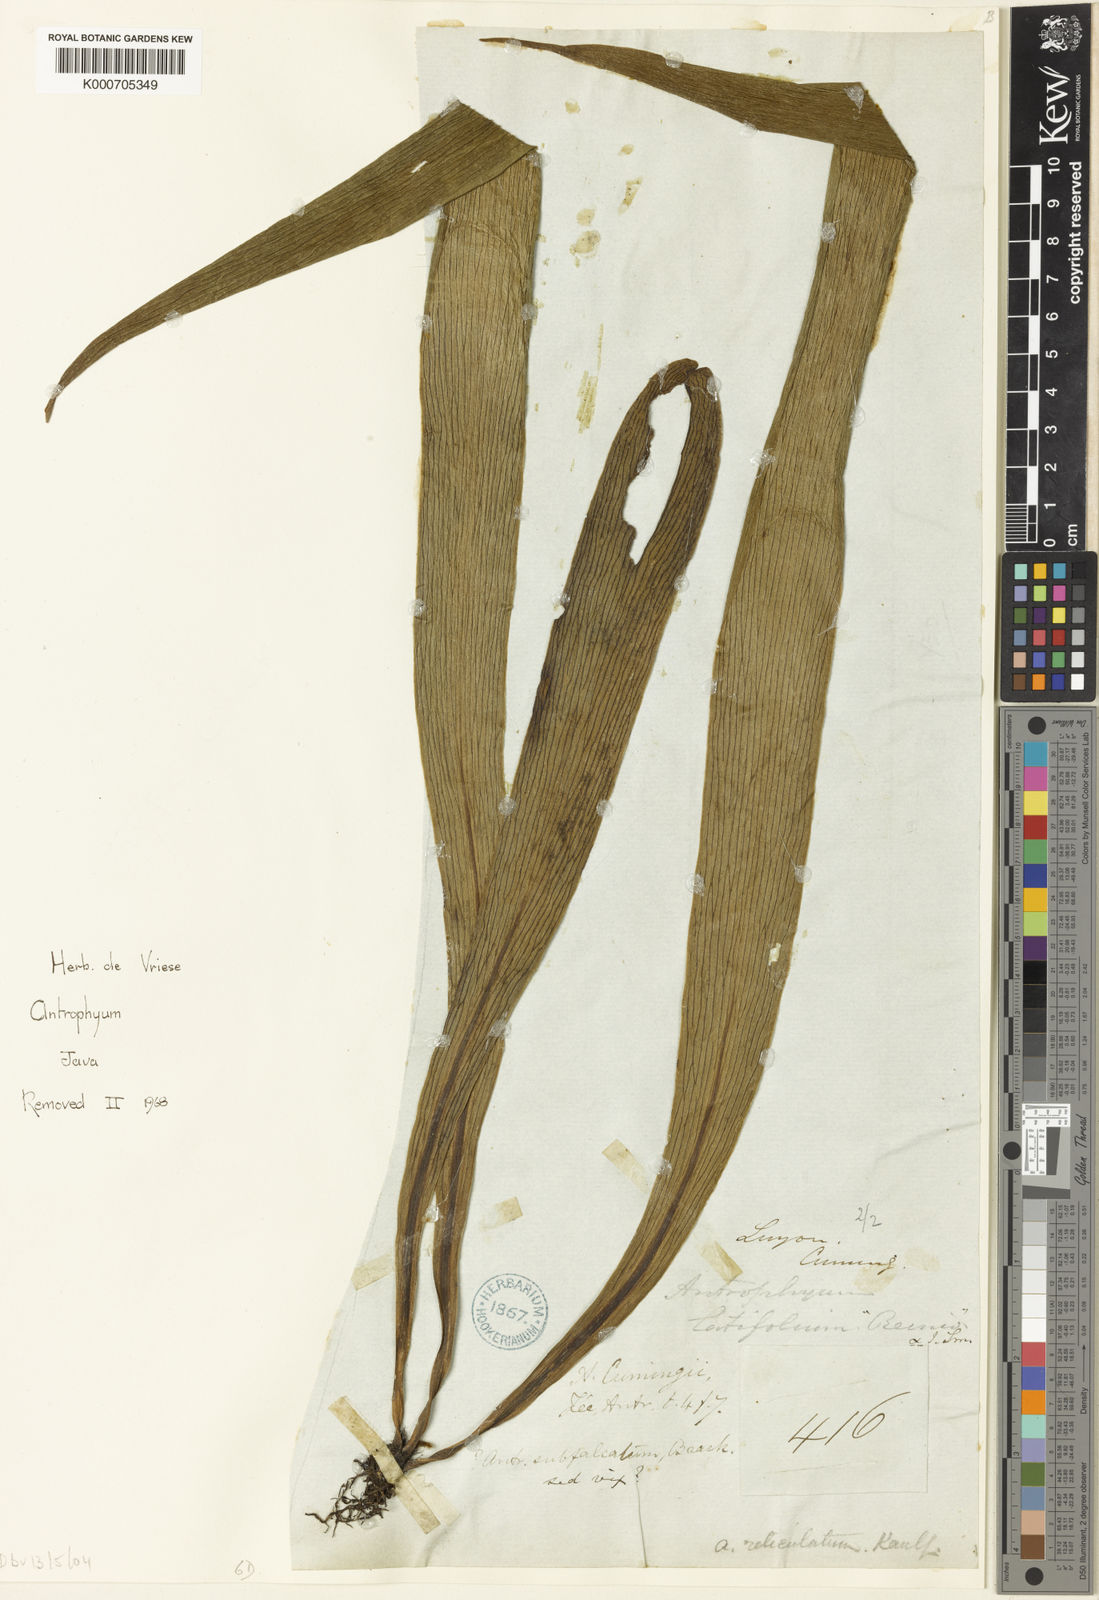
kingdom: Plantae
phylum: Tracheophyta
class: Polypodiopsida
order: Polypodiales
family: Pteridaceae
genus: Antrophyum
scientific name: Antrophyum
